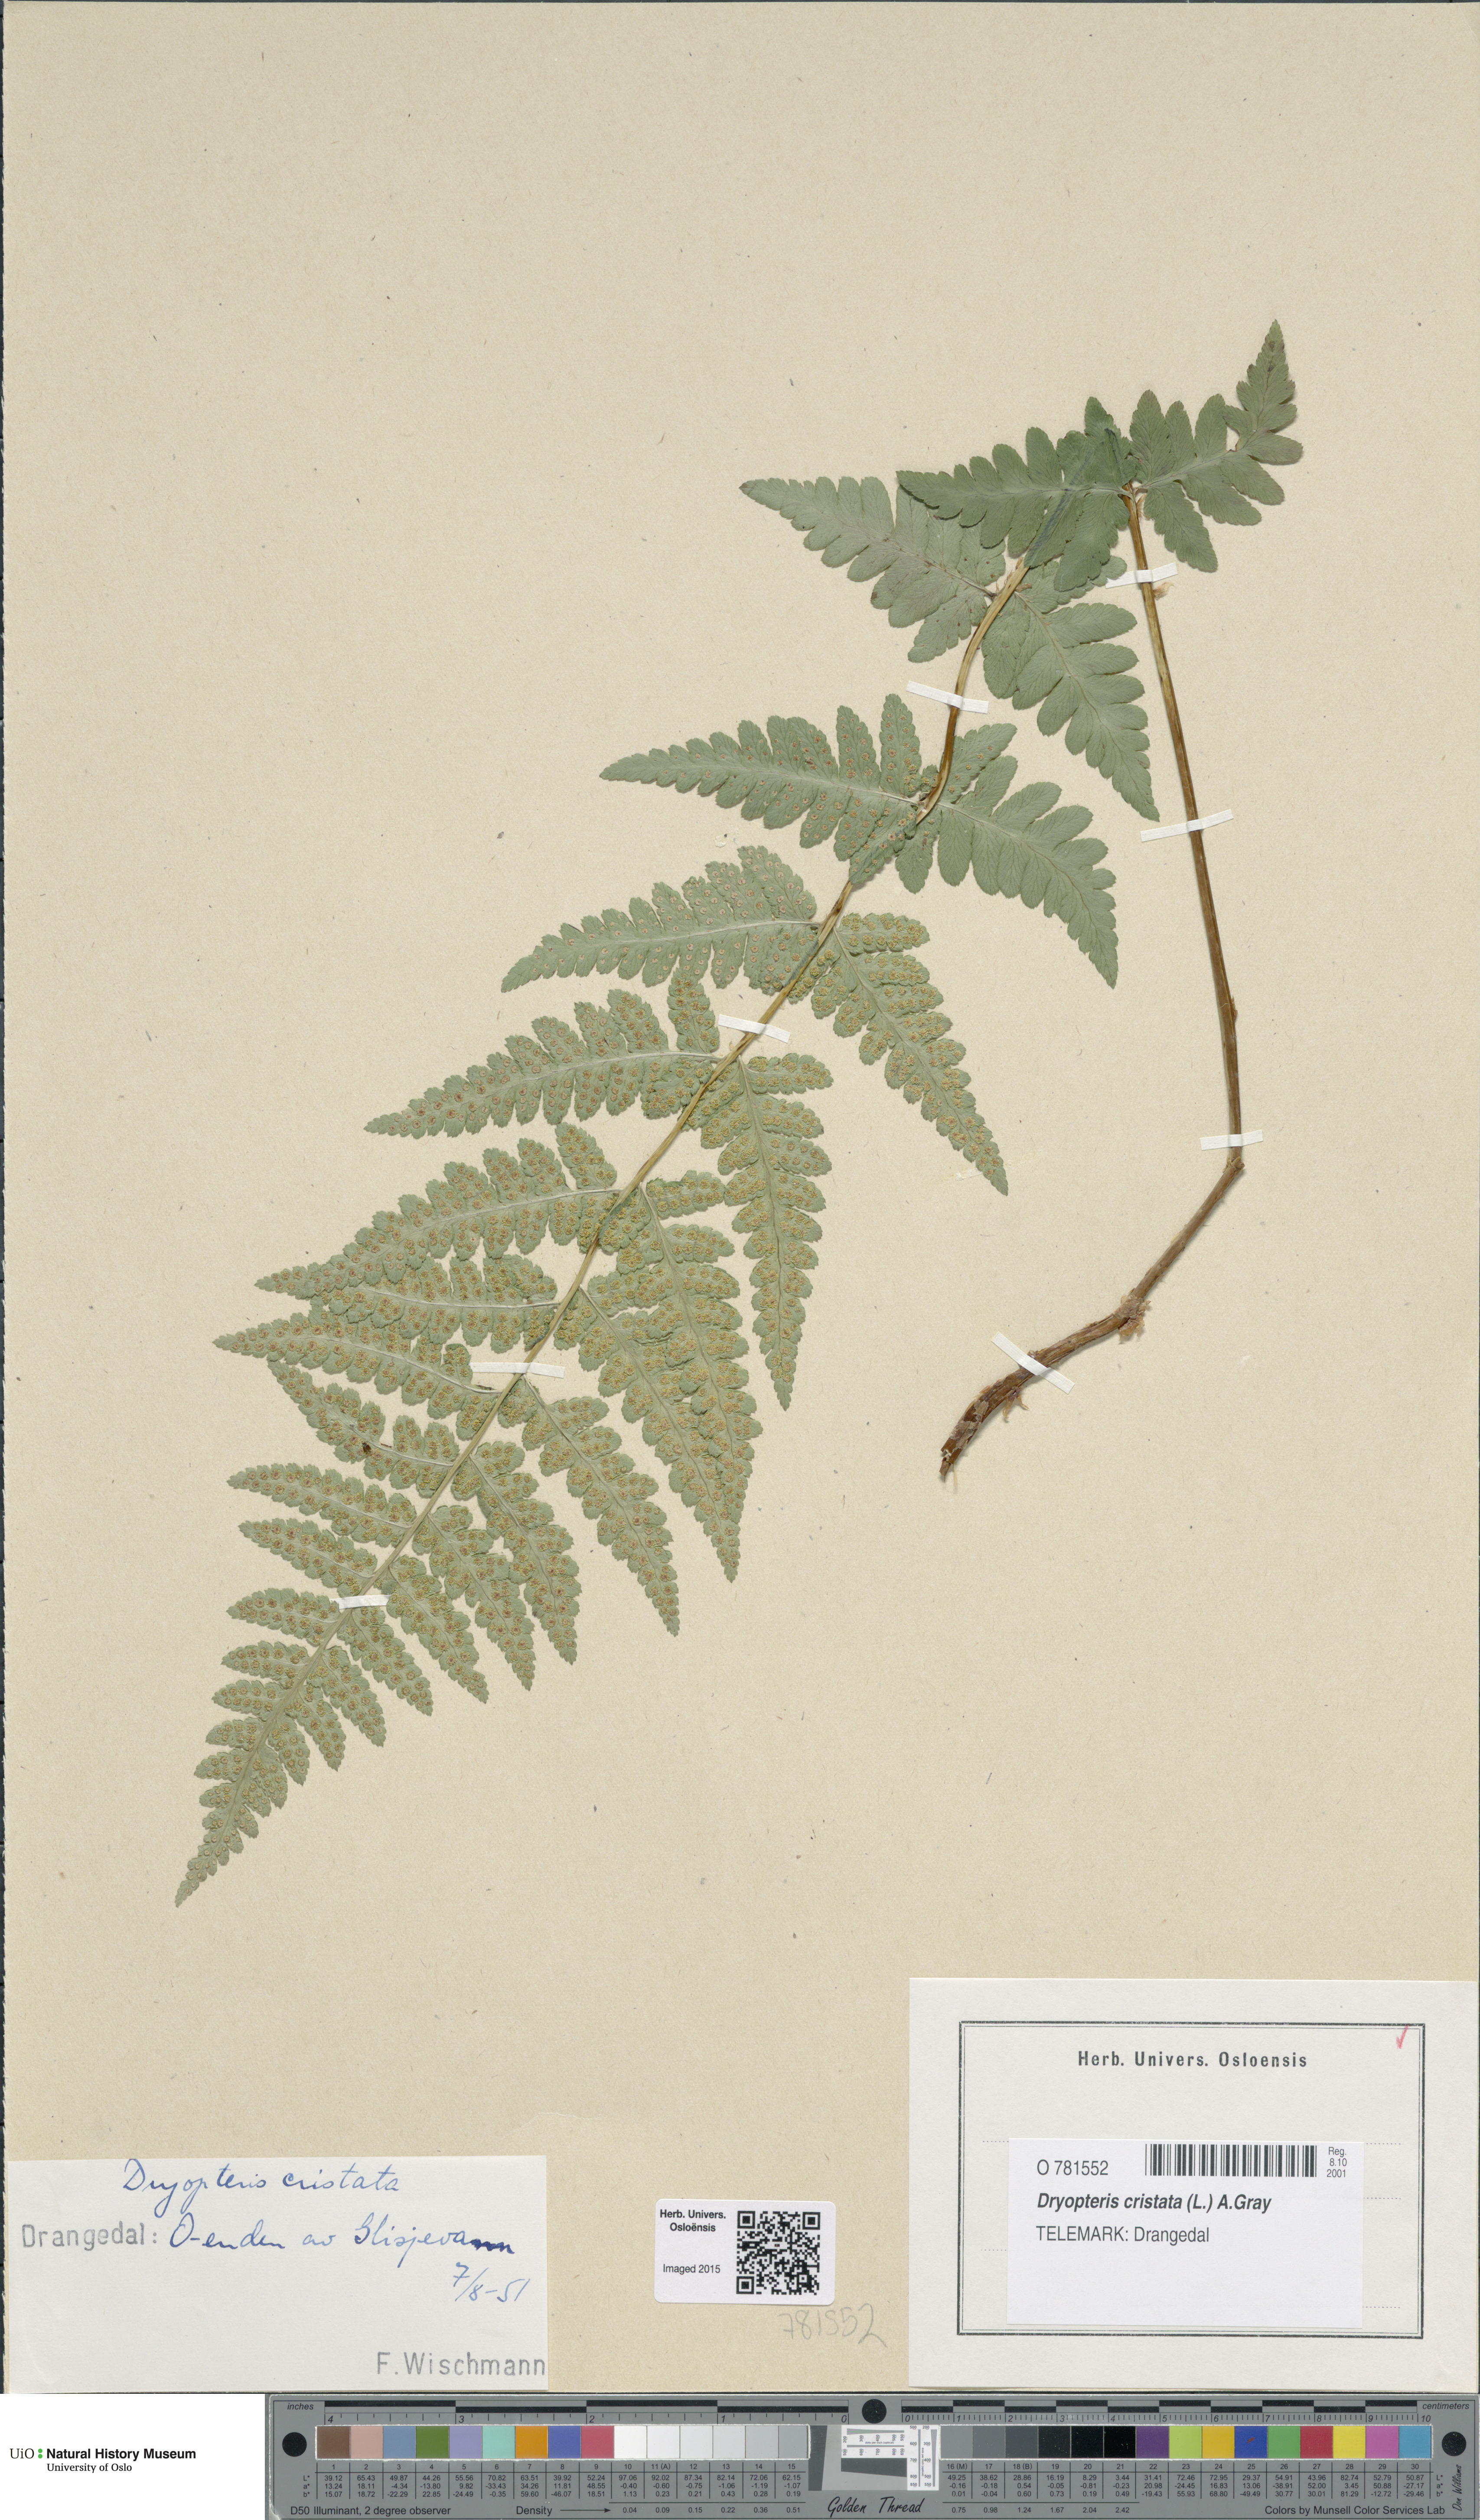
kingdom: Plantae
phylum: Tracheophyta
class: Polypodiopsida
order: Polypodiales
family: Dryopteridaceae
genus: Dryopteris
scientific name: Dryopteris cristata
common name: Crested wood fern
